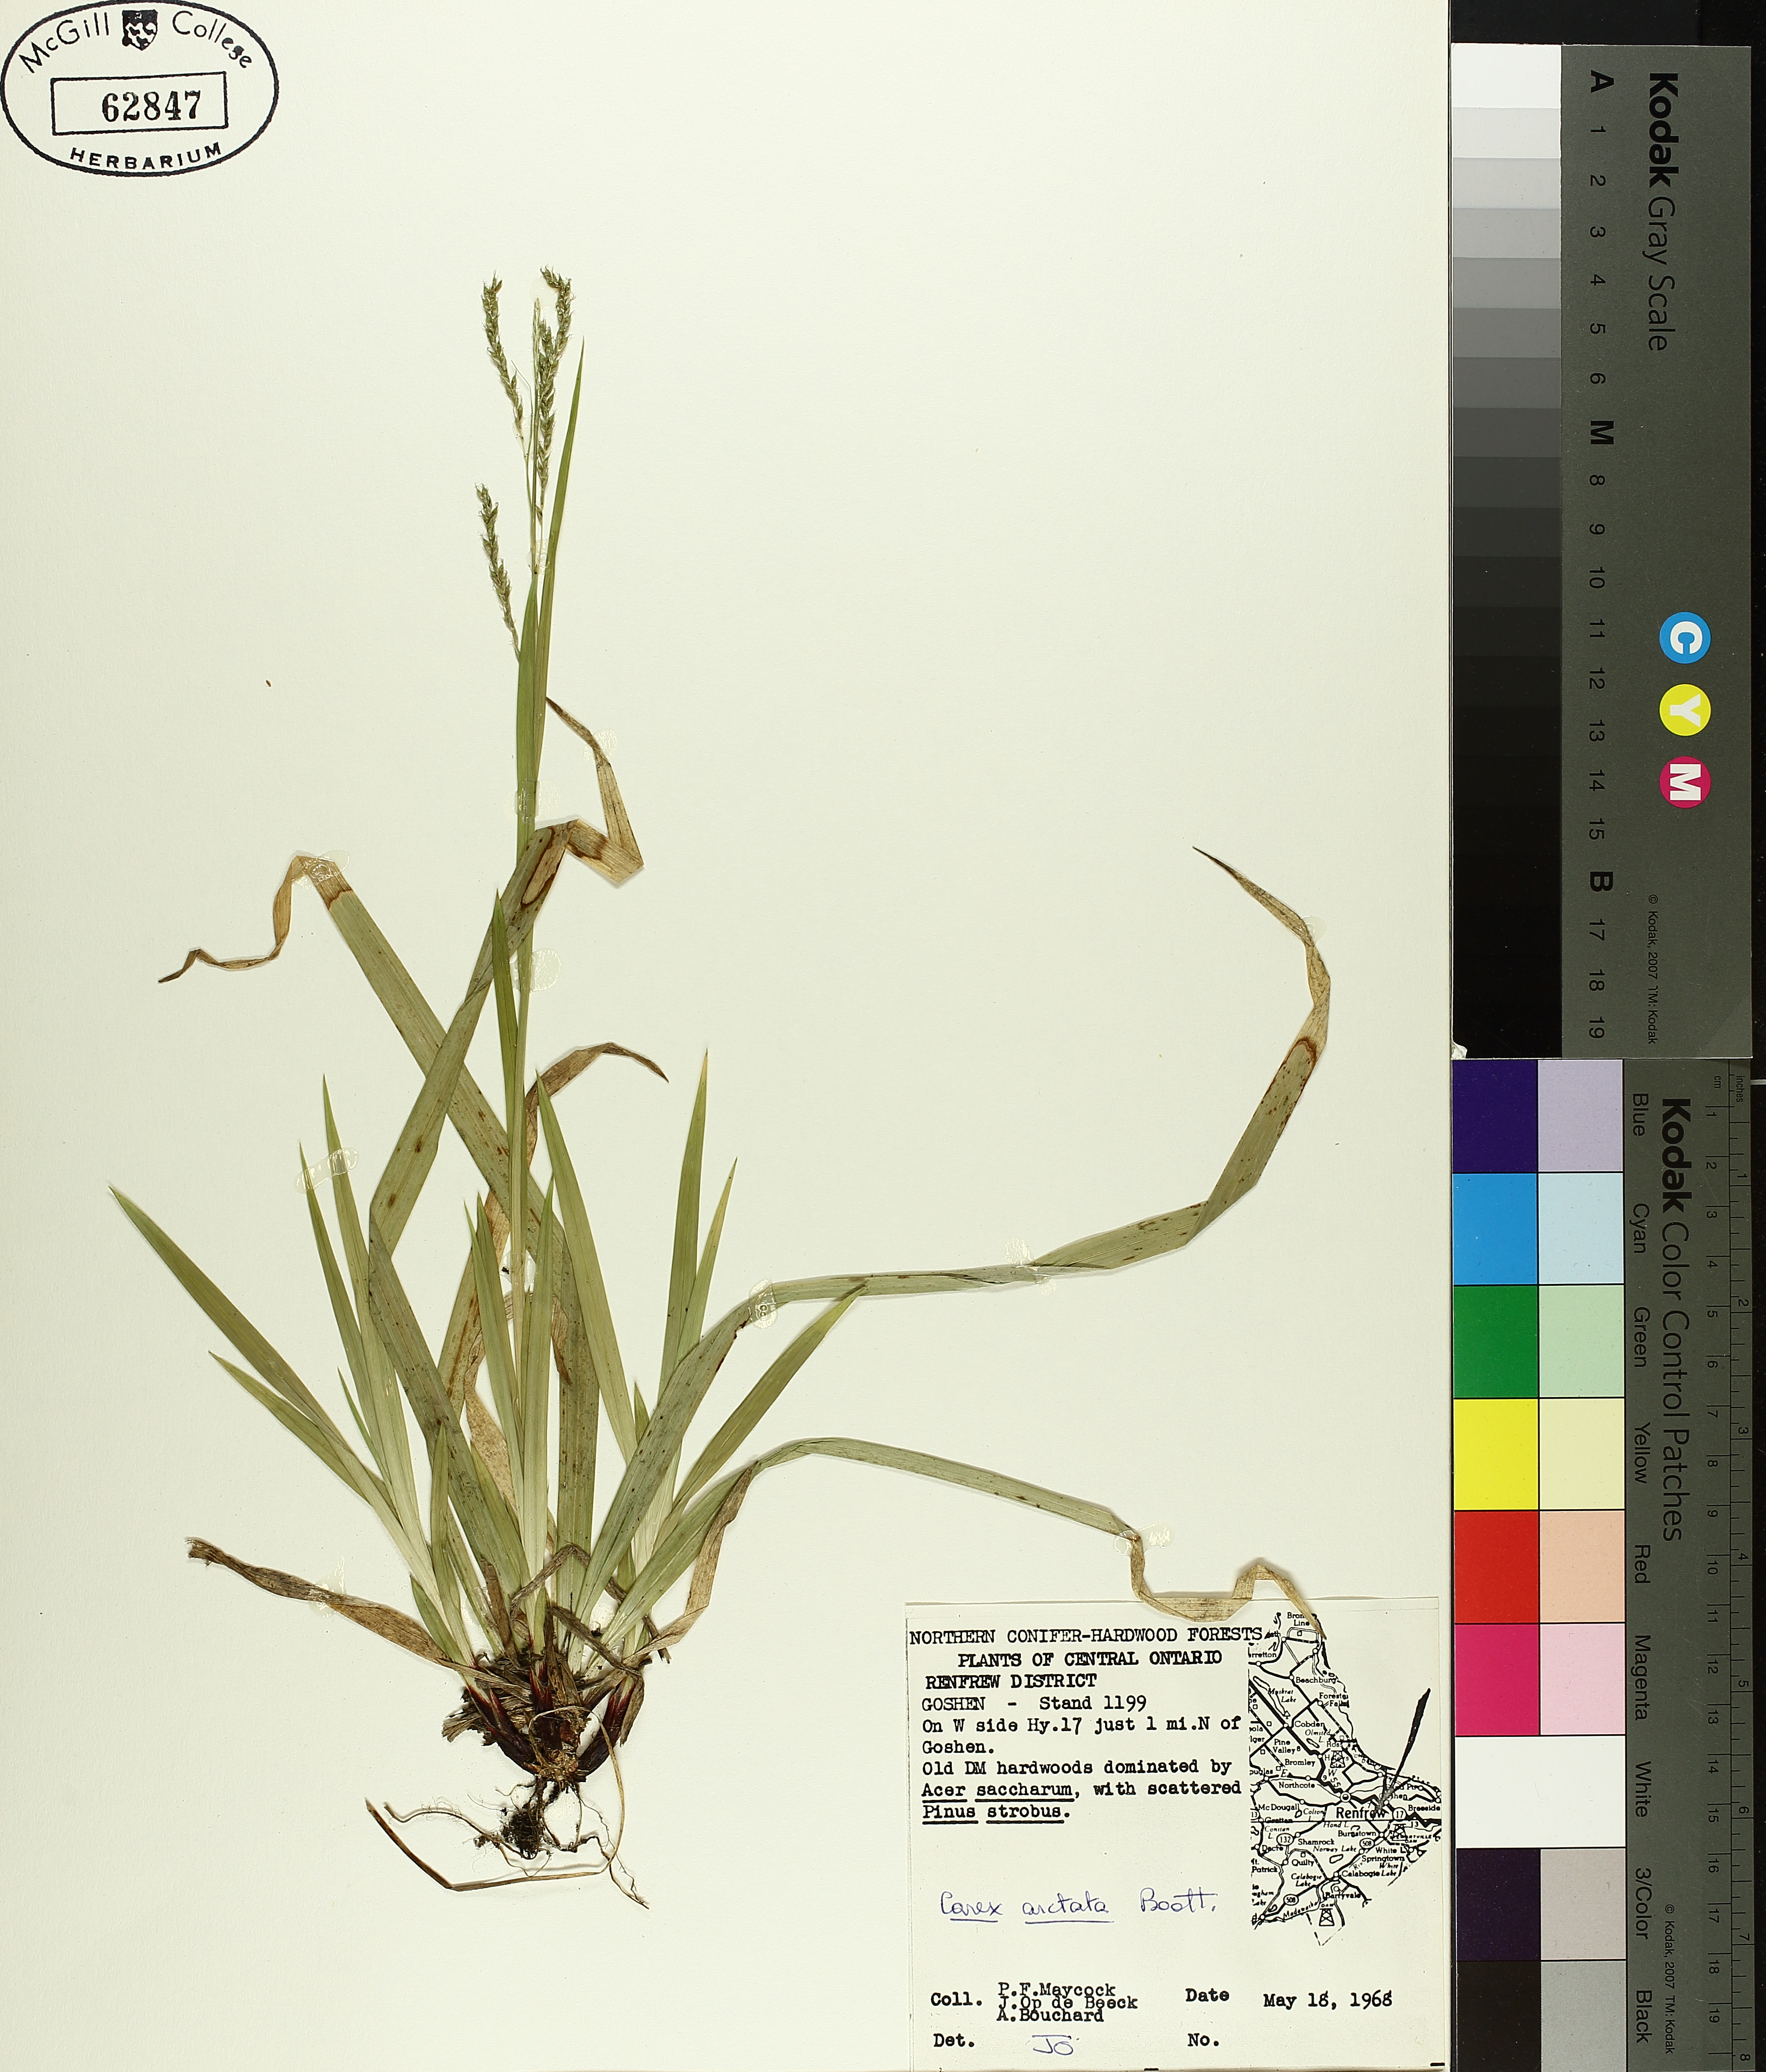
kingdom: Plantae
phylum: Tracheophyta
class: Liliopsida
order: Poales
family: Cyperaceae
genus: Carex
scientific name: Carex arctata
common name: Black sedge
